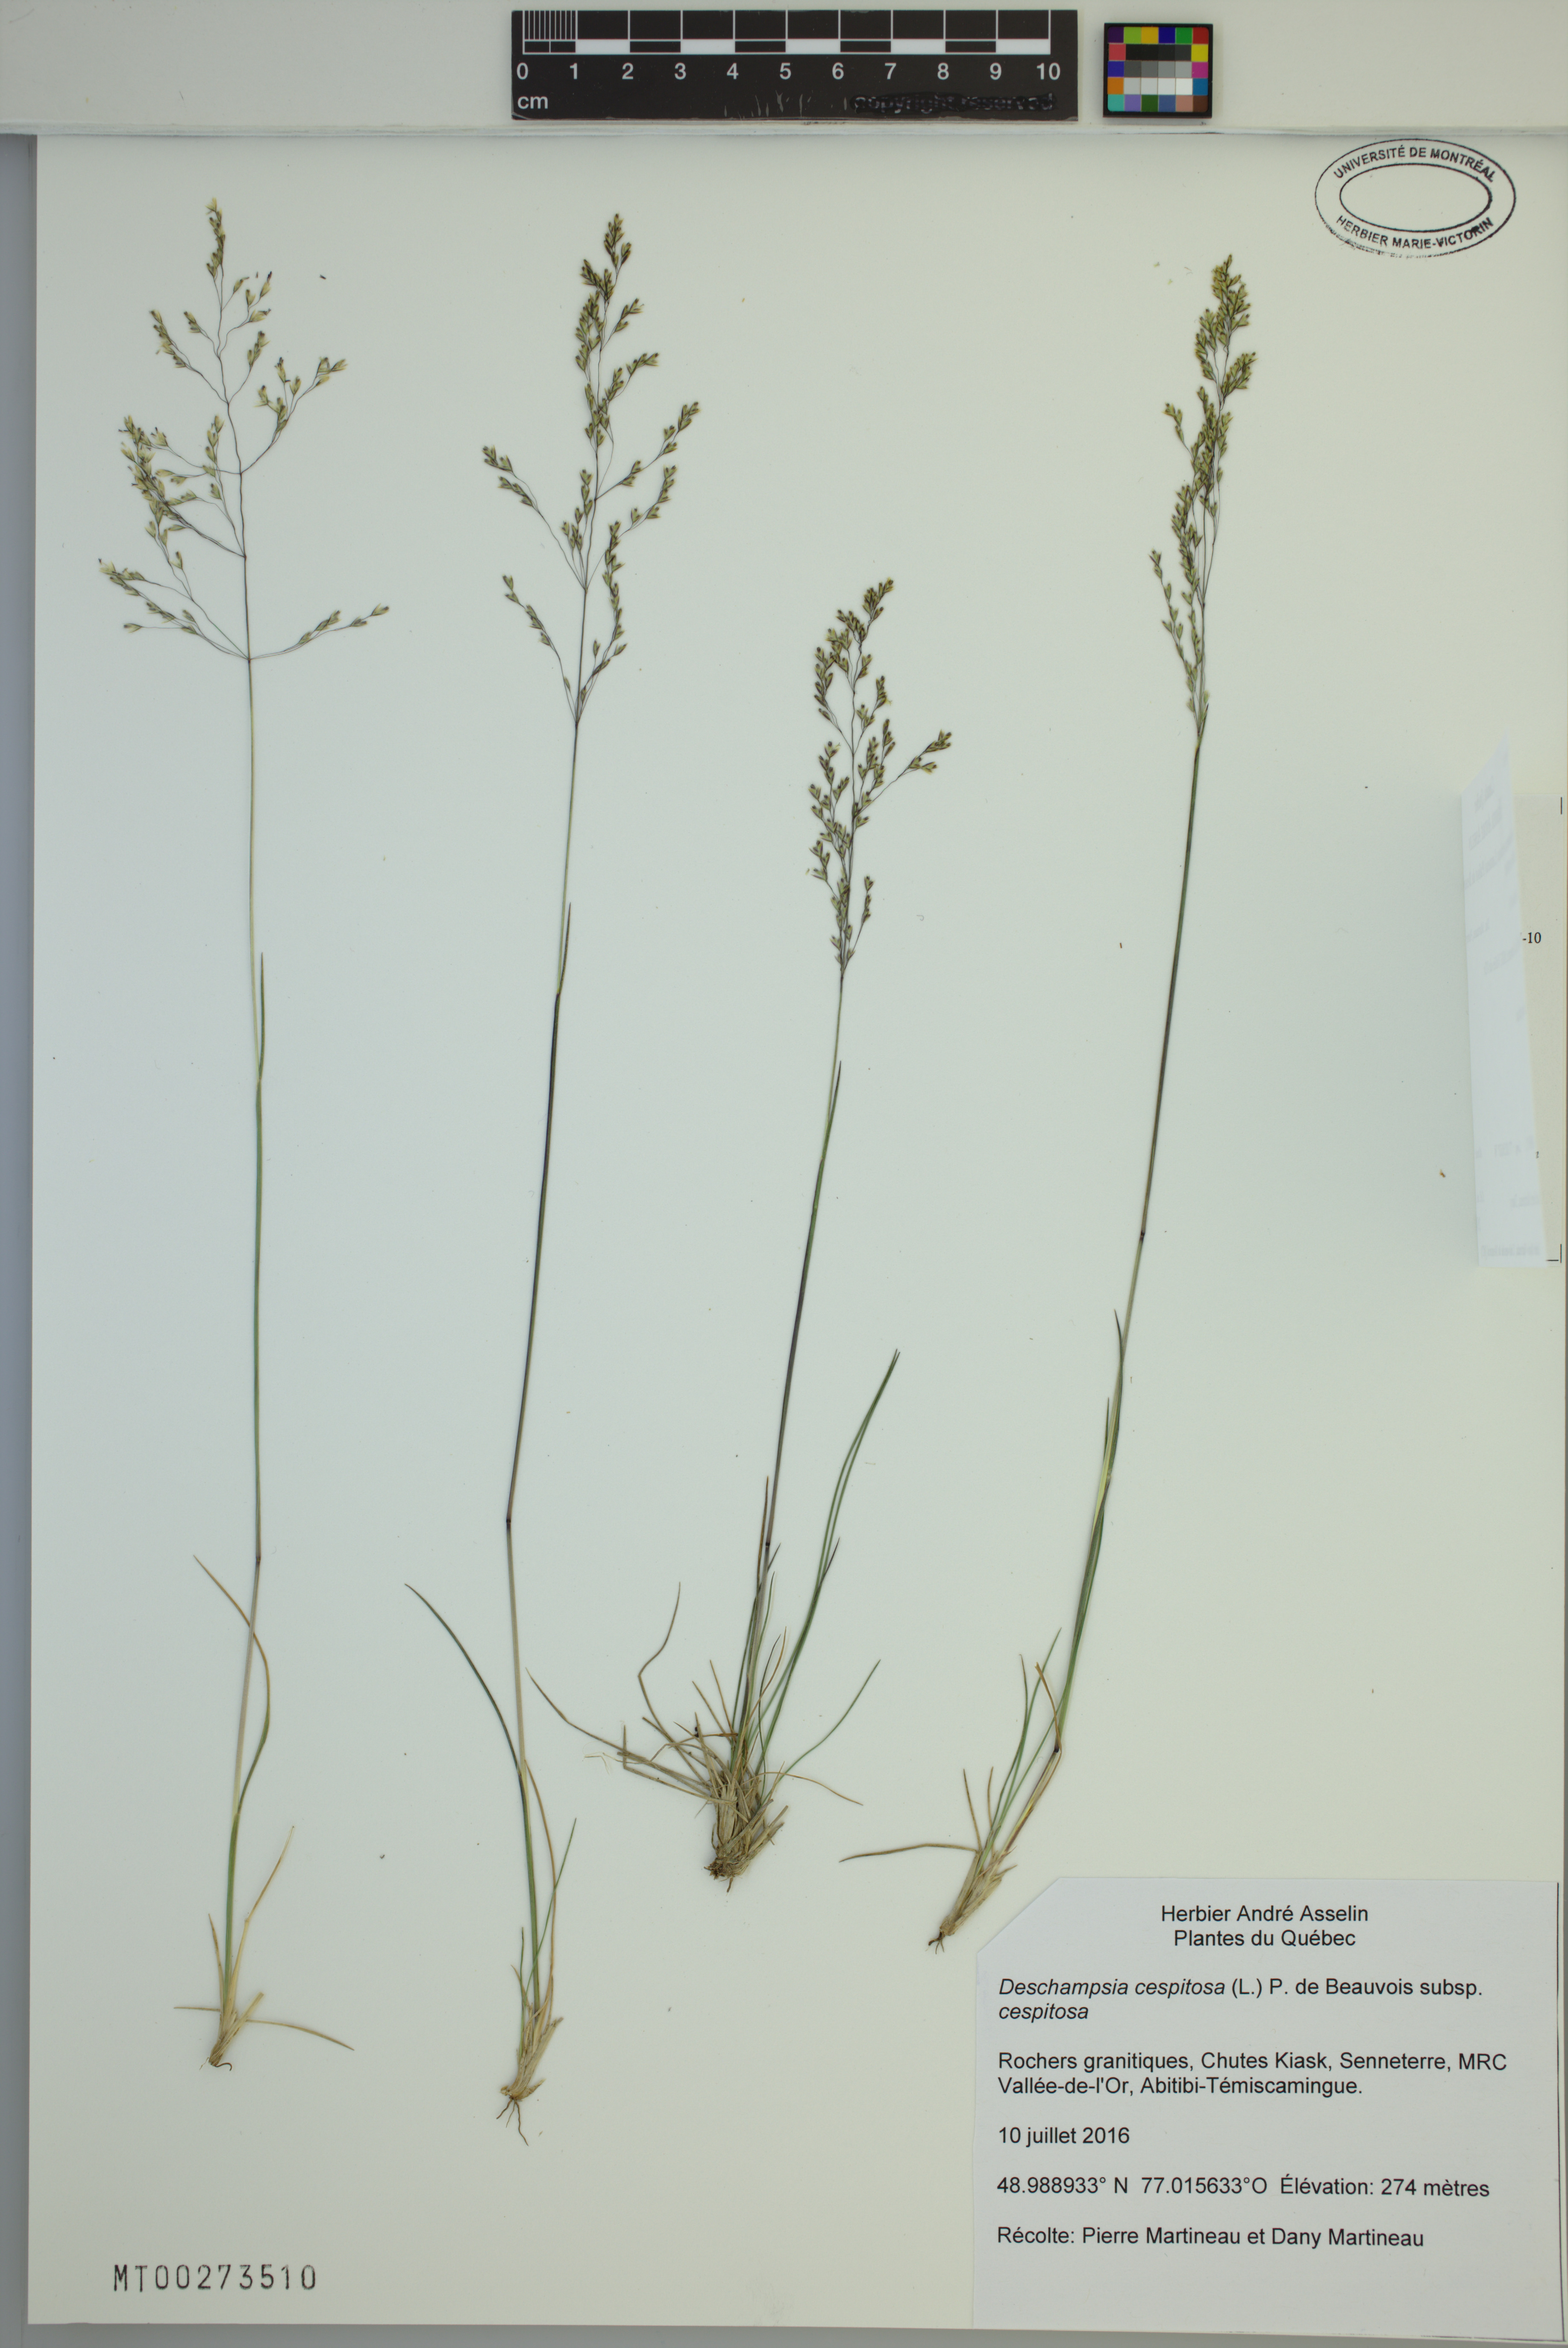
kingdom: Plantae
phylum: Tracheophyta
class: Liliopsida
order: Poales
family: Poaceae
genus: Deschampsia
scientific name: Deschampsia cespitosa
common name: Tufted hair-grass
